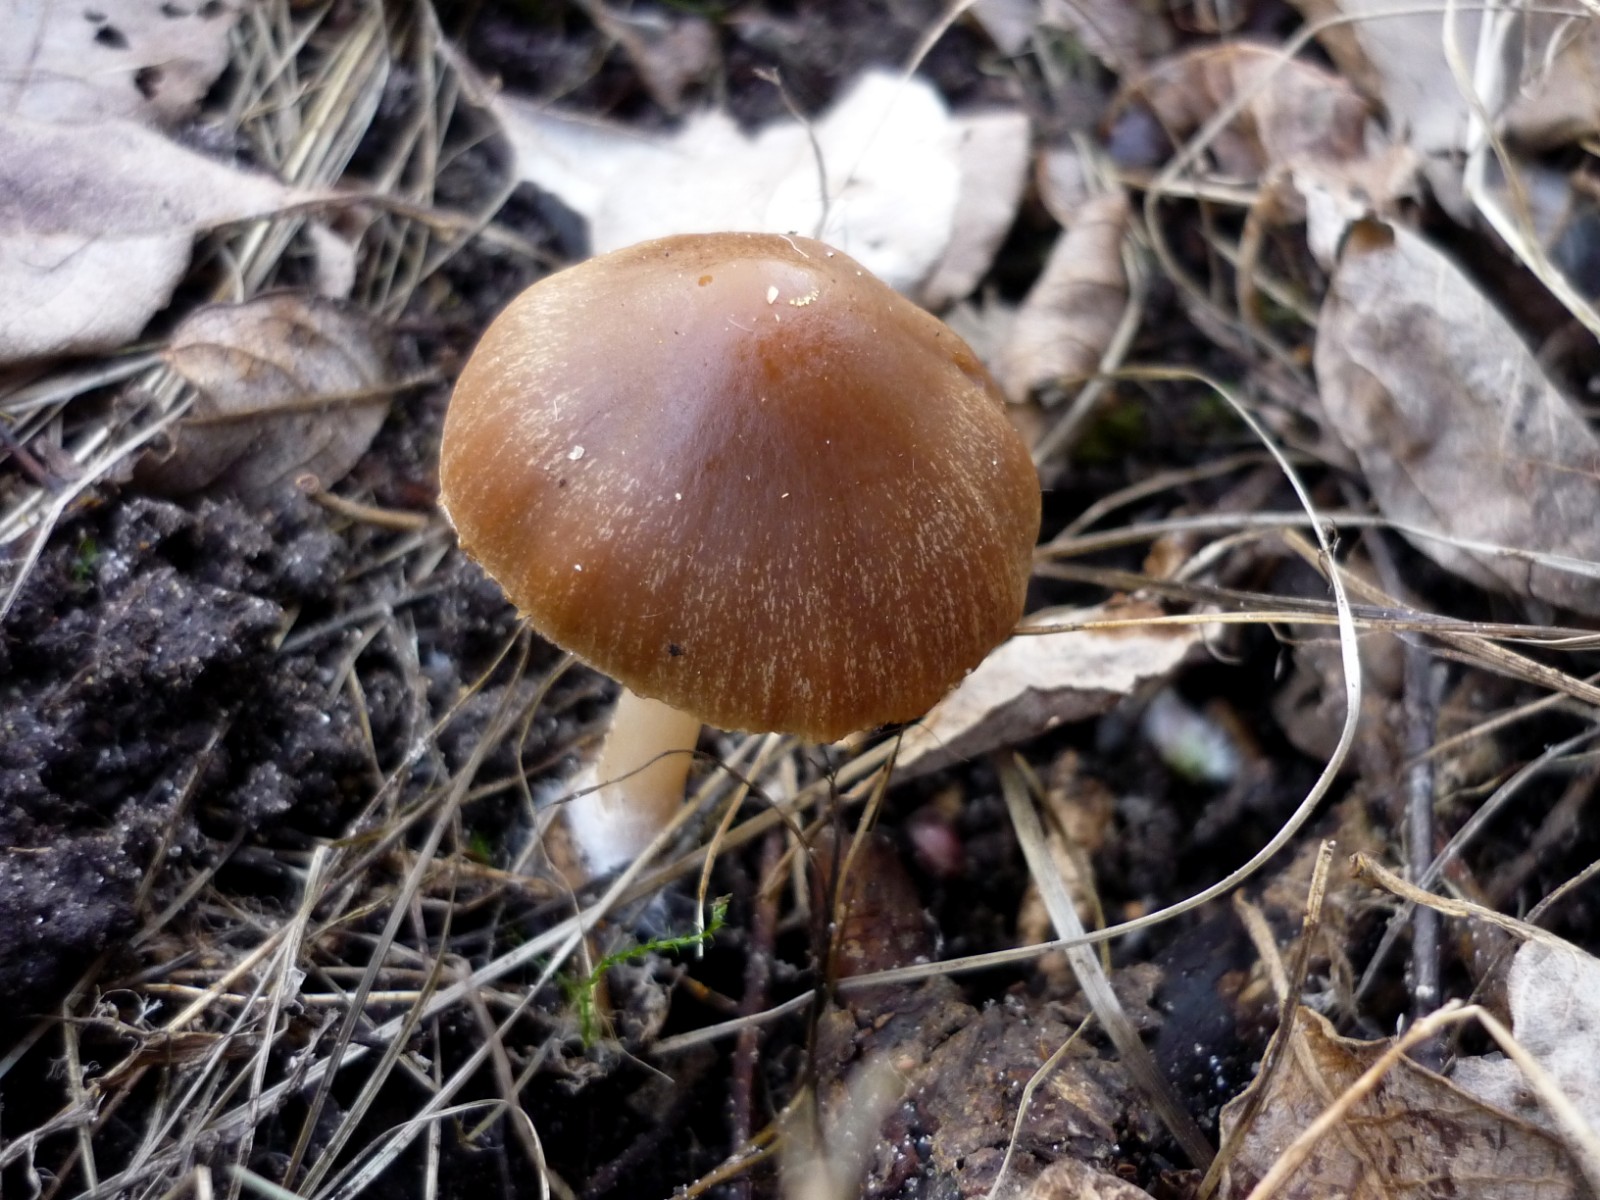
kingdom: Fungi
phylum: Basidiomycota
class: Agaricomycetes
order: Agaricales
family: Psathyrellaceae
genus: Psathyrella
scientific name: Psathyrella spadiceogrisea
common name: gråbrun mørkhat
